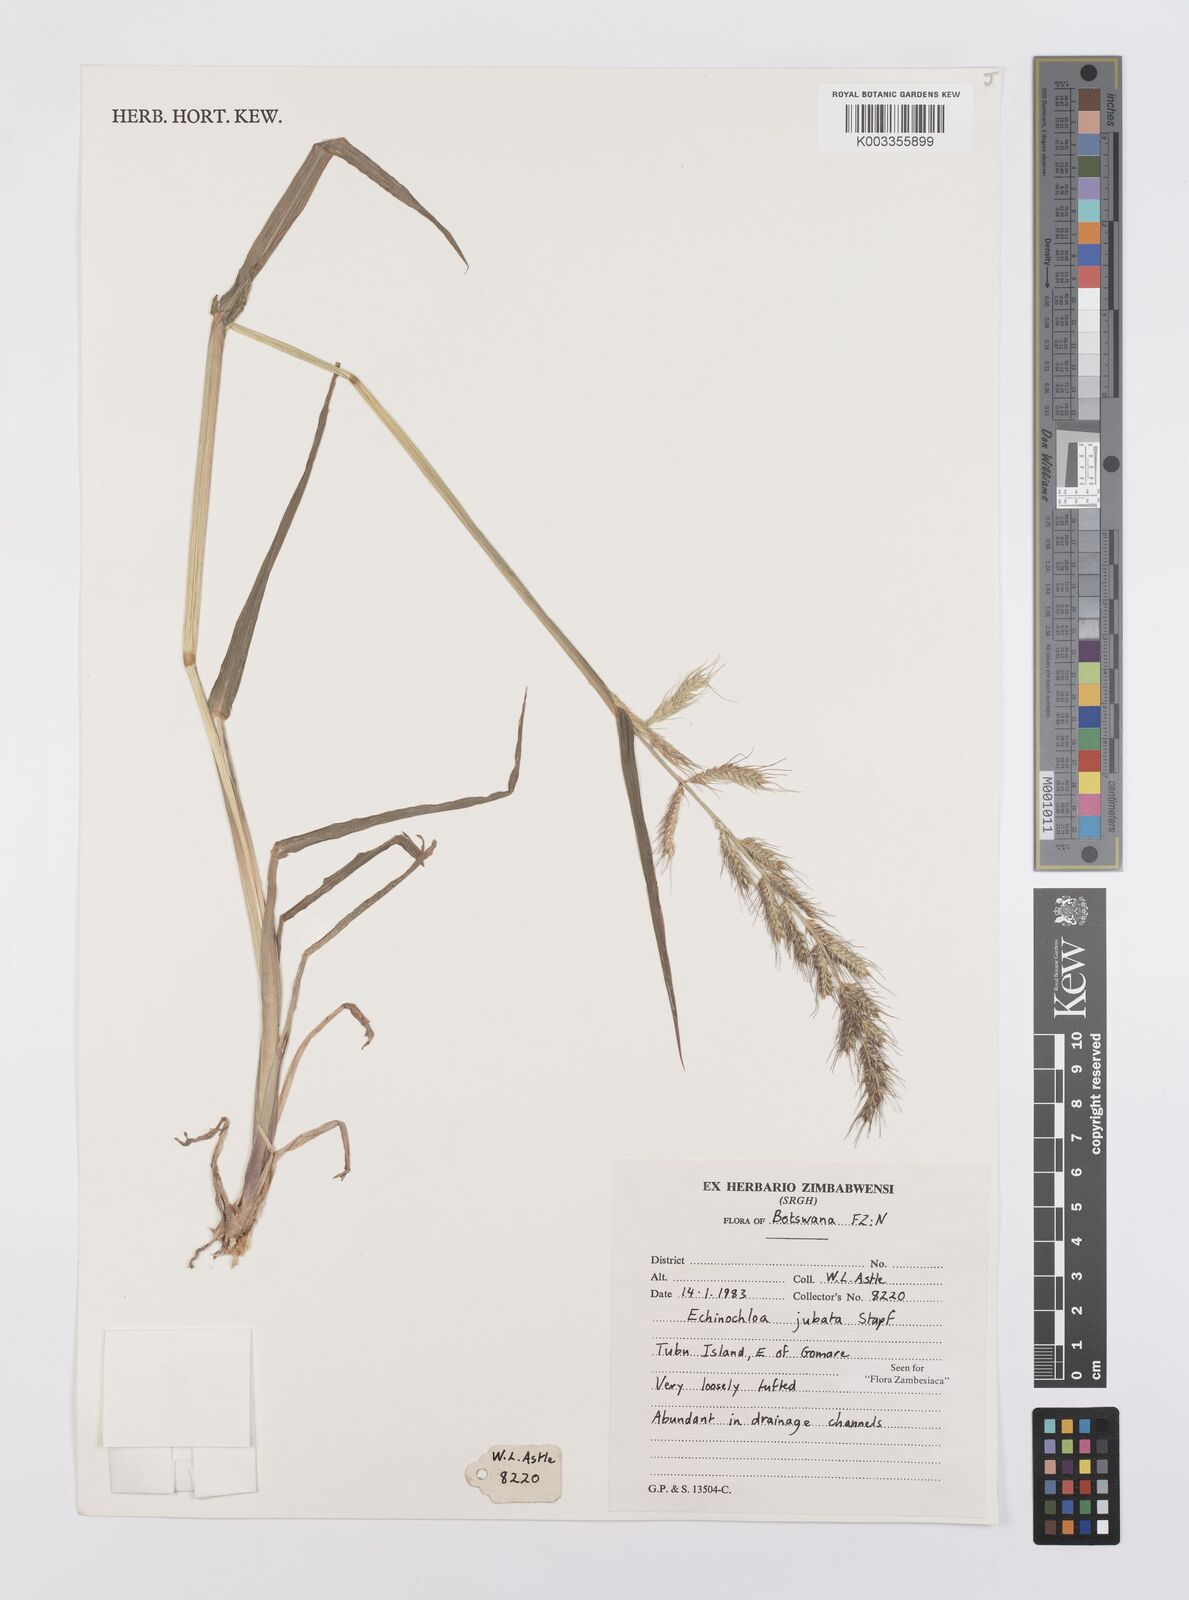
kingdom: Plantae
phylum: Tracheophyta
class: Liliopsida
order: Poales
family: Poaceae
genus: Echinochloa
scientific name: Echinochloa jubata
